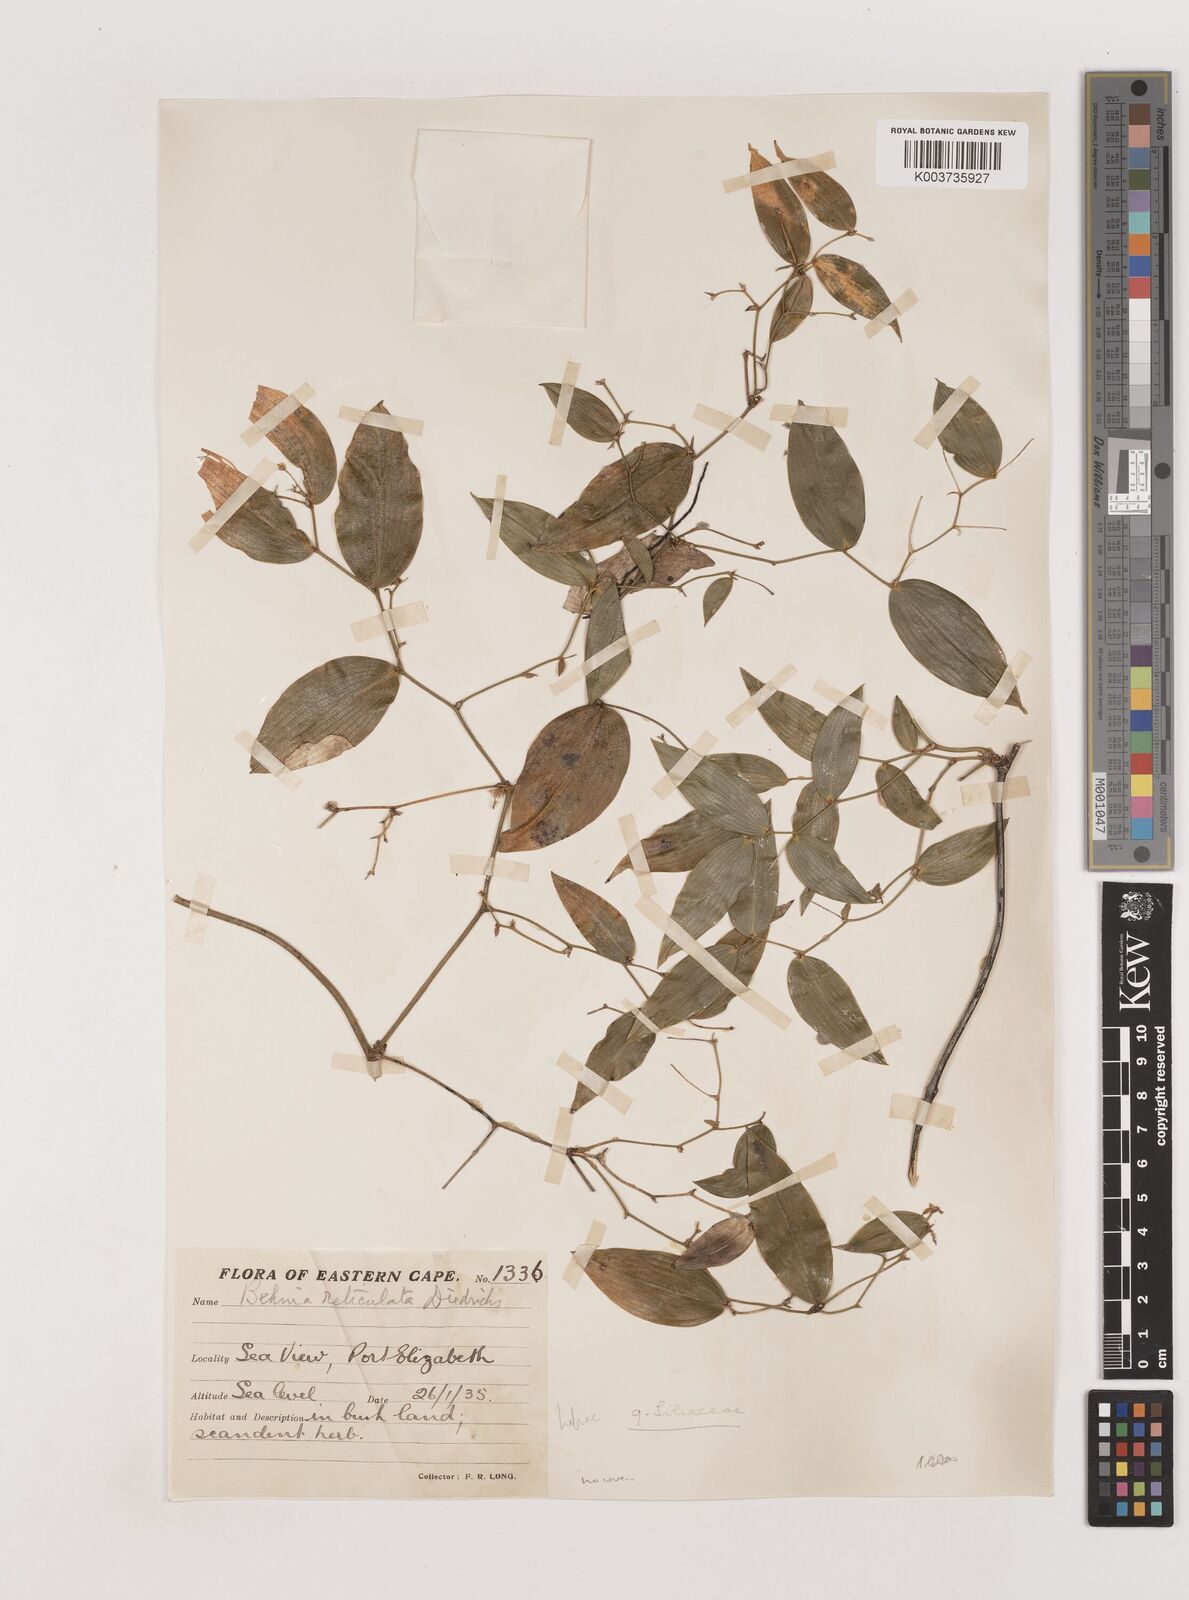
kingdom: Plantae
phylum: Tracheophyta
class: Liliopsida
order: Asparagales
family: Asparagaceae
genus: Behnia
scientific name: Behnia reticulata
